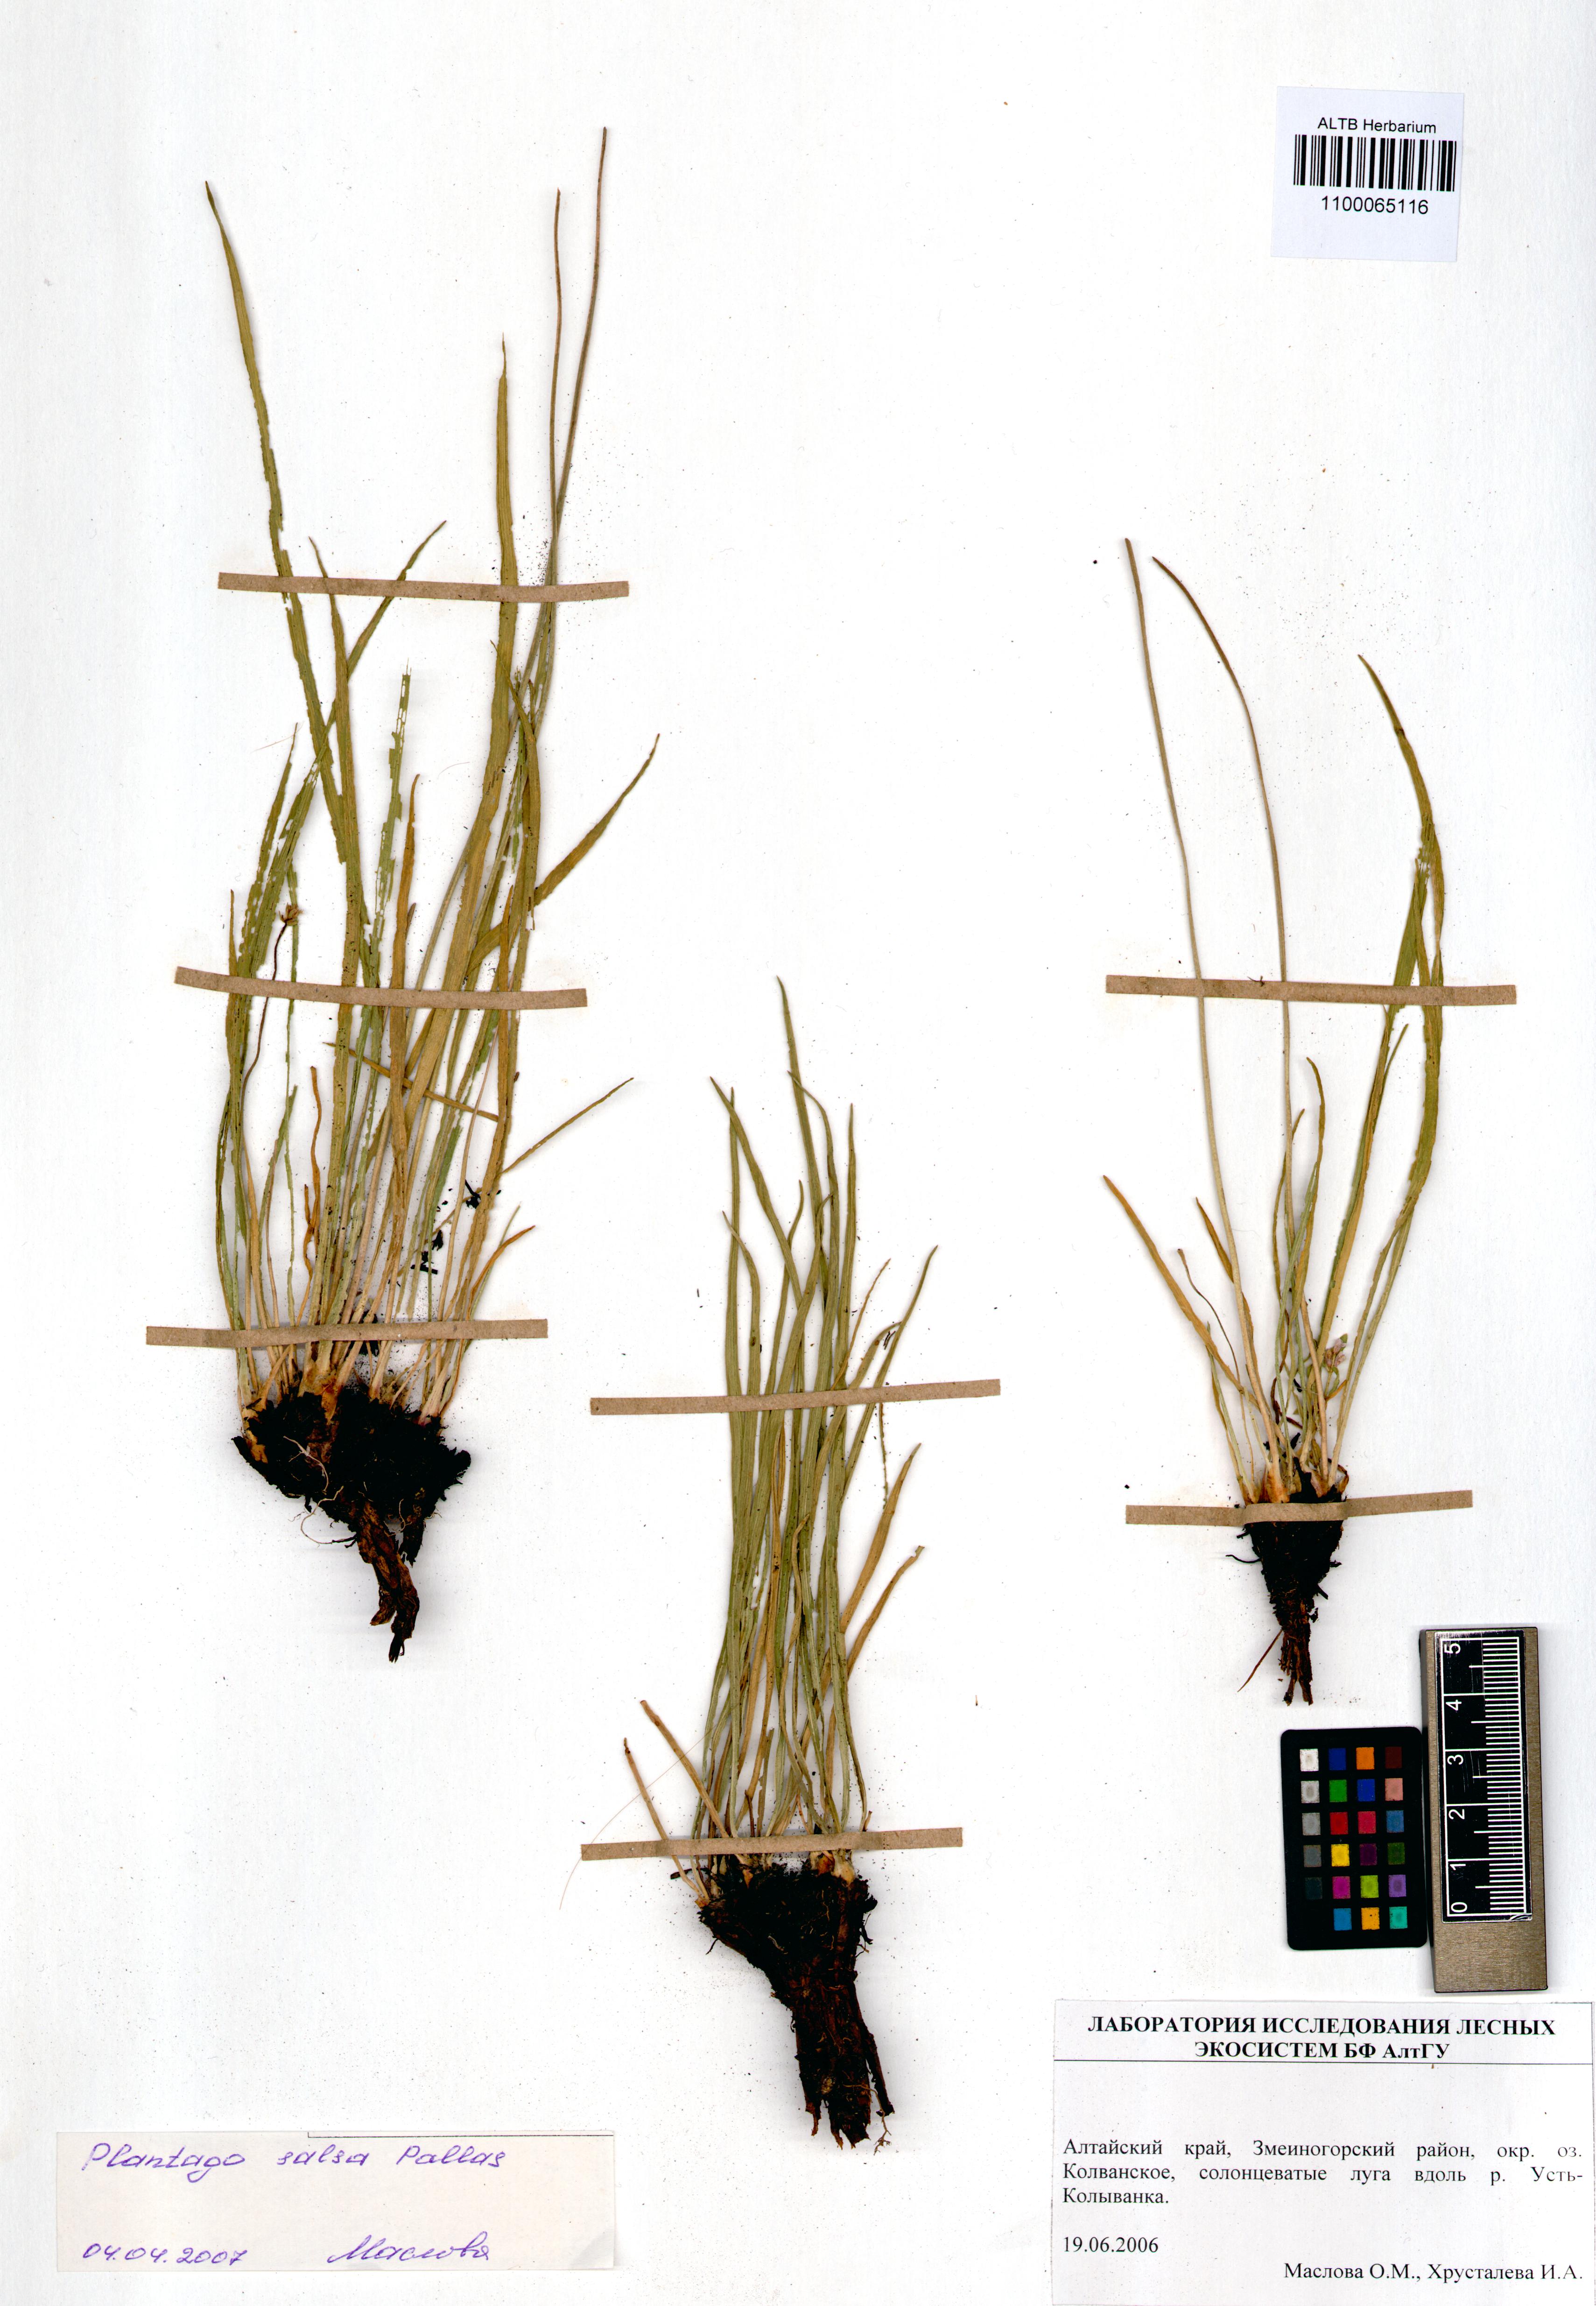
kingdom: Plantae
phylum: Tracheophyta
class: Magnoliopsida
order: Lamiales
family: Plantaginaceae
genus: Plantago
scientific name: Plantago salsa
